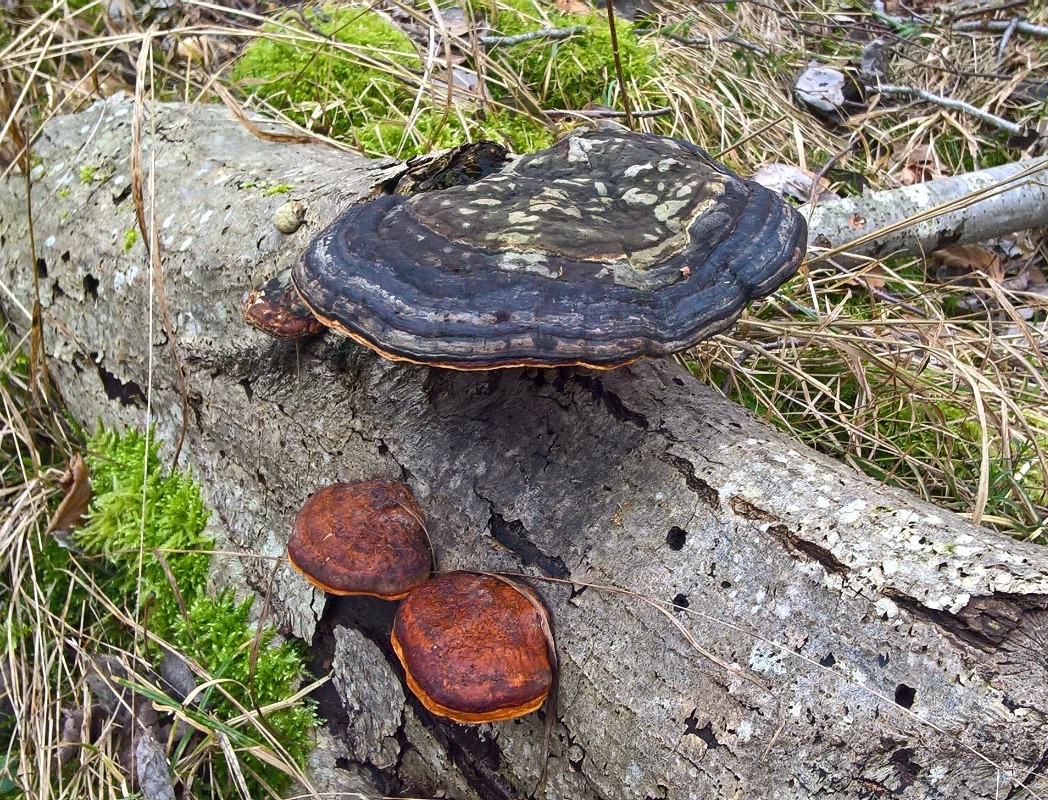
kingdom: Fungi
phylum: Basidiomycota
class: Agaricomycetes
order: Polyporales
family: Fomitopsidaceae
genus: Fomitopsis
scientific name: Fomitopsis pinicola
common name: randbæltet hovporesvamp
